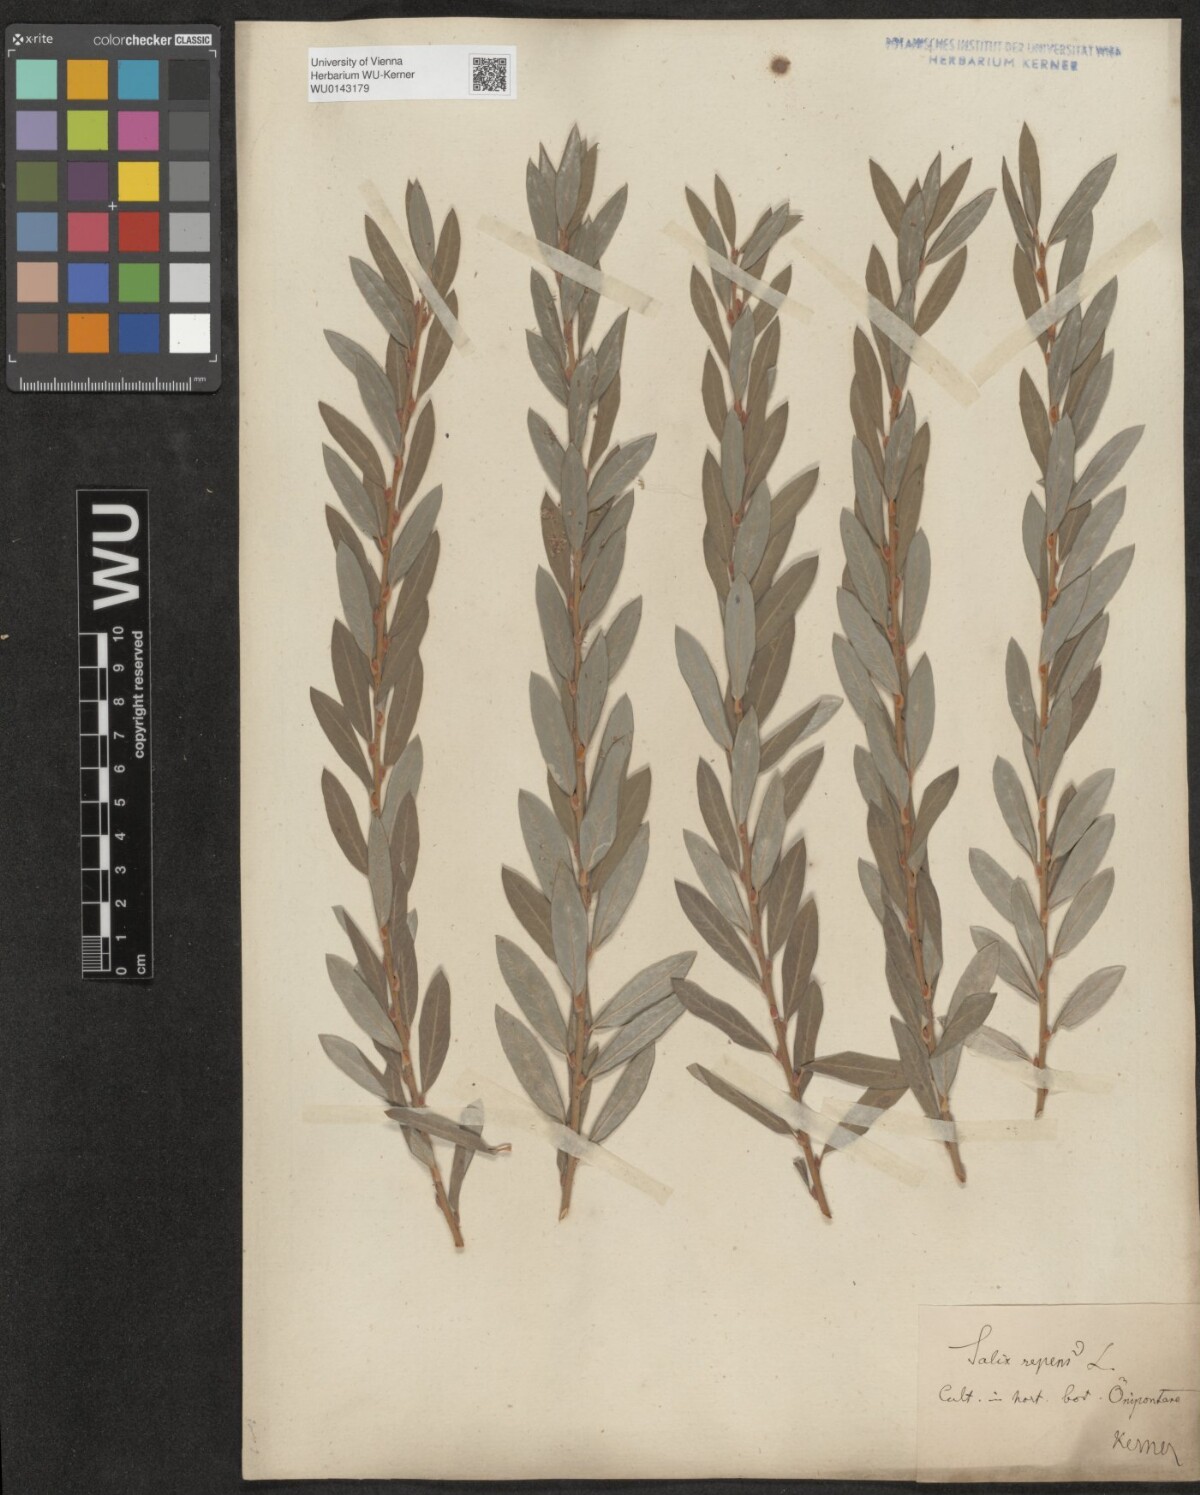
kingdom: Plantae
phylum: Tracheophyta
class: Magnoliopsida
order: Malpighiales
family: Salicaceae
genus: Salix
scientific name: Salix repens
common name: Creeping willow
